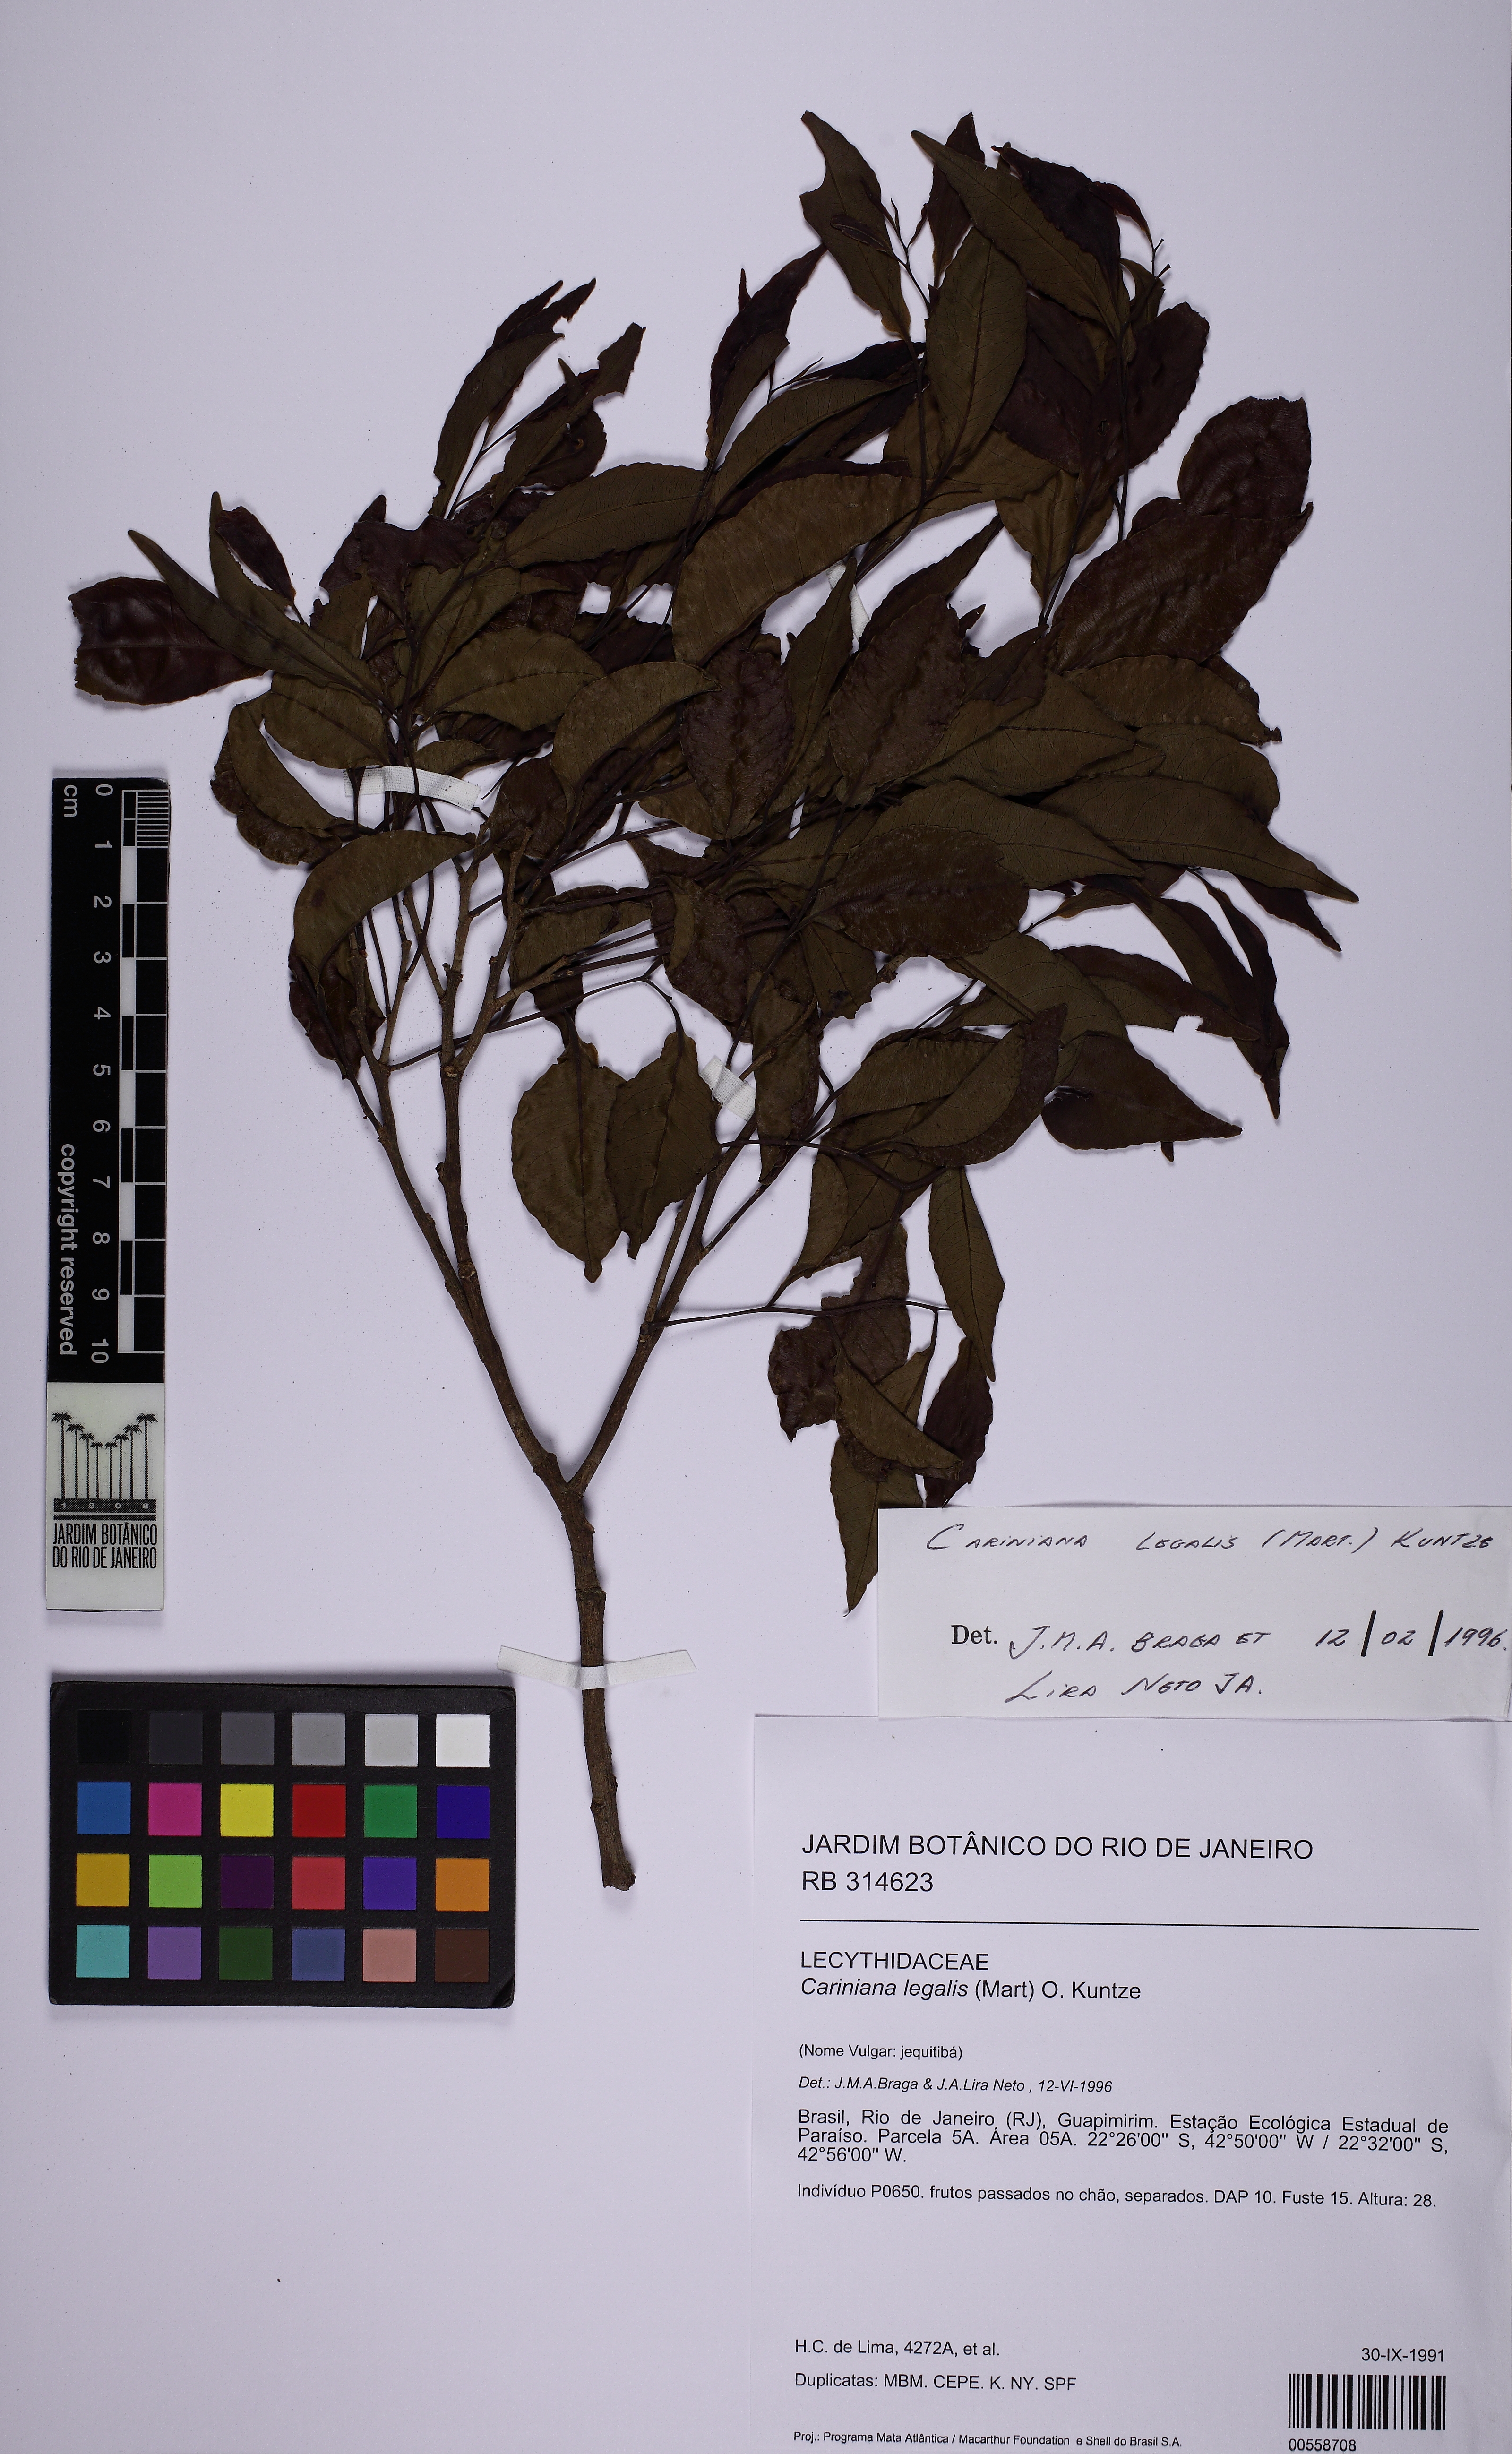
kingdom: Plantae
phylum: Tracheophyta
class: Magnoliopsida
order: Ericales
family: Lecythidaceae
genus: Cariniana
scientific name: Cariniana legalis
